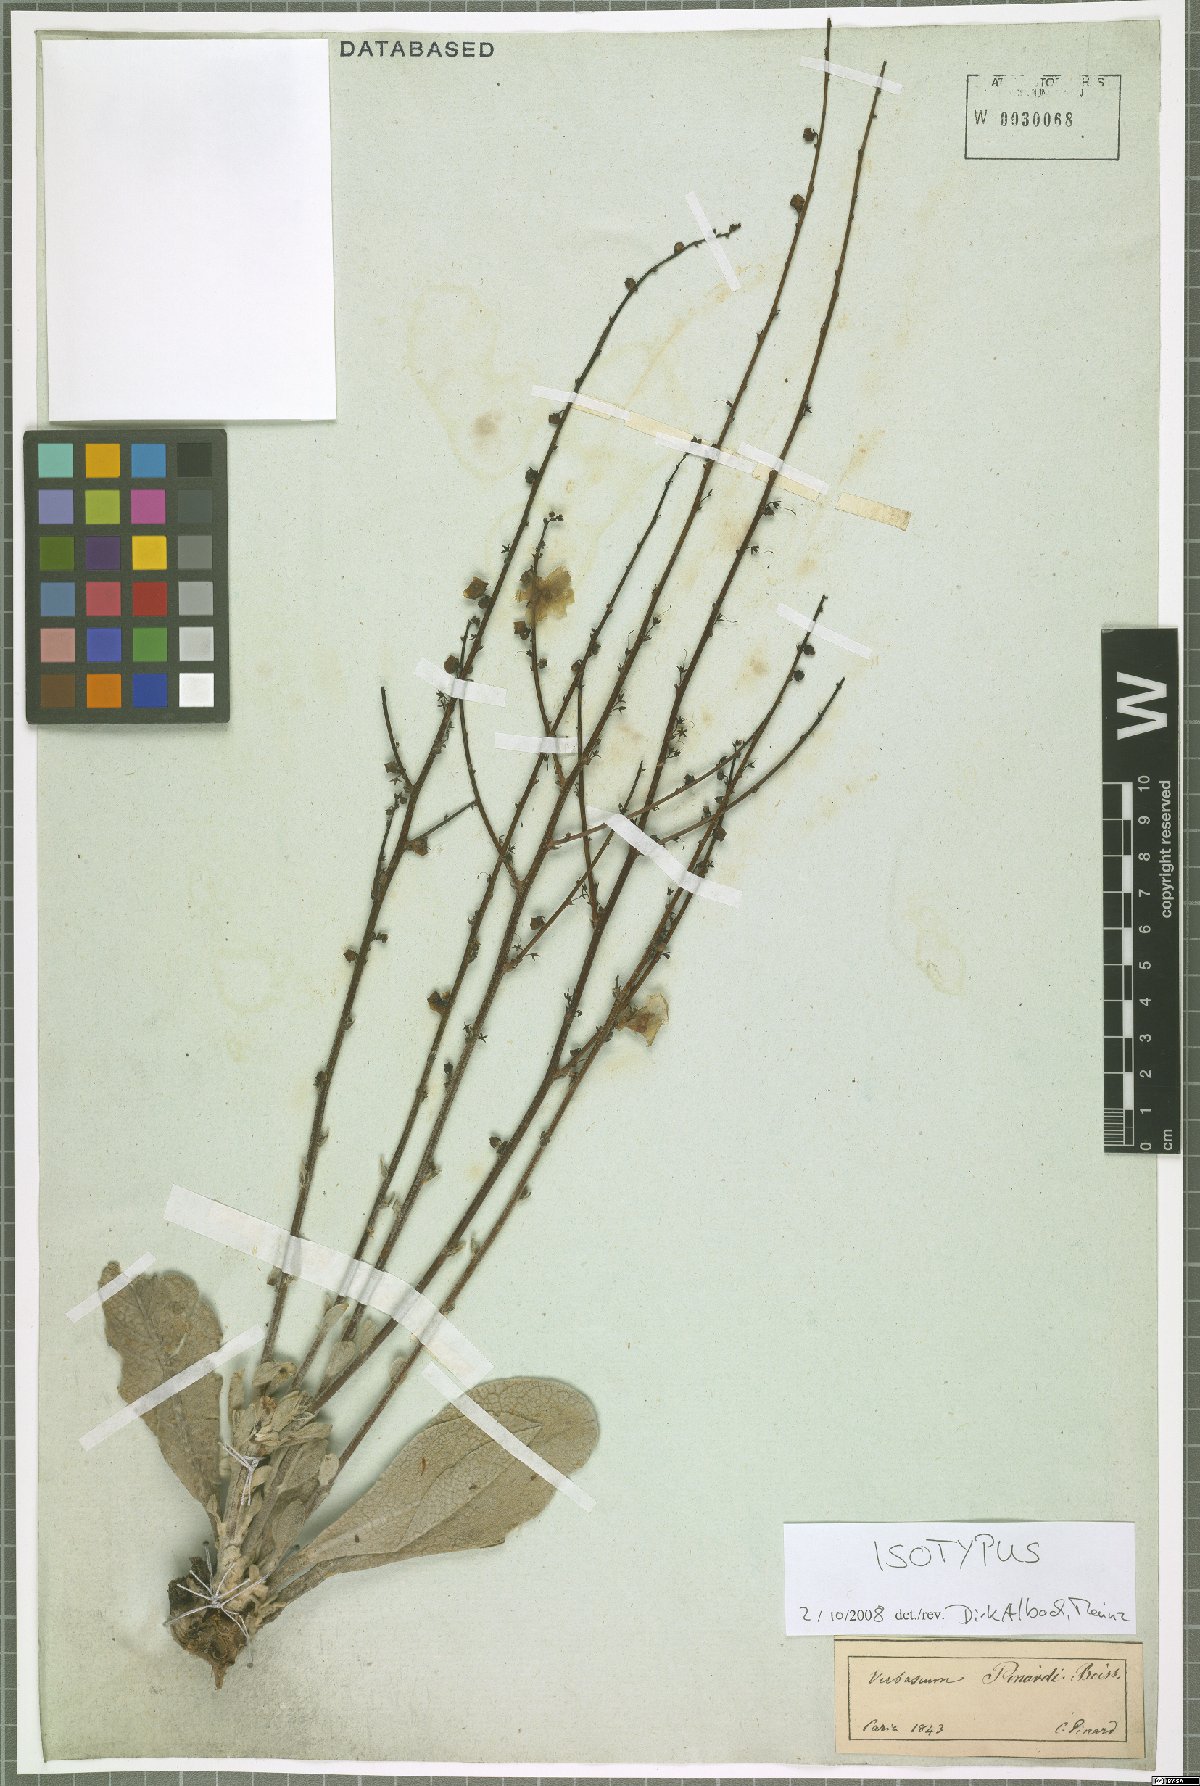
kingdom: Plantae
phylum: Tracheophyta
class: Magnoliopsida
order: Lamiales
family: Scrophulariaceae
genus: Verbascum
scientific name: Verbascum pinardii
